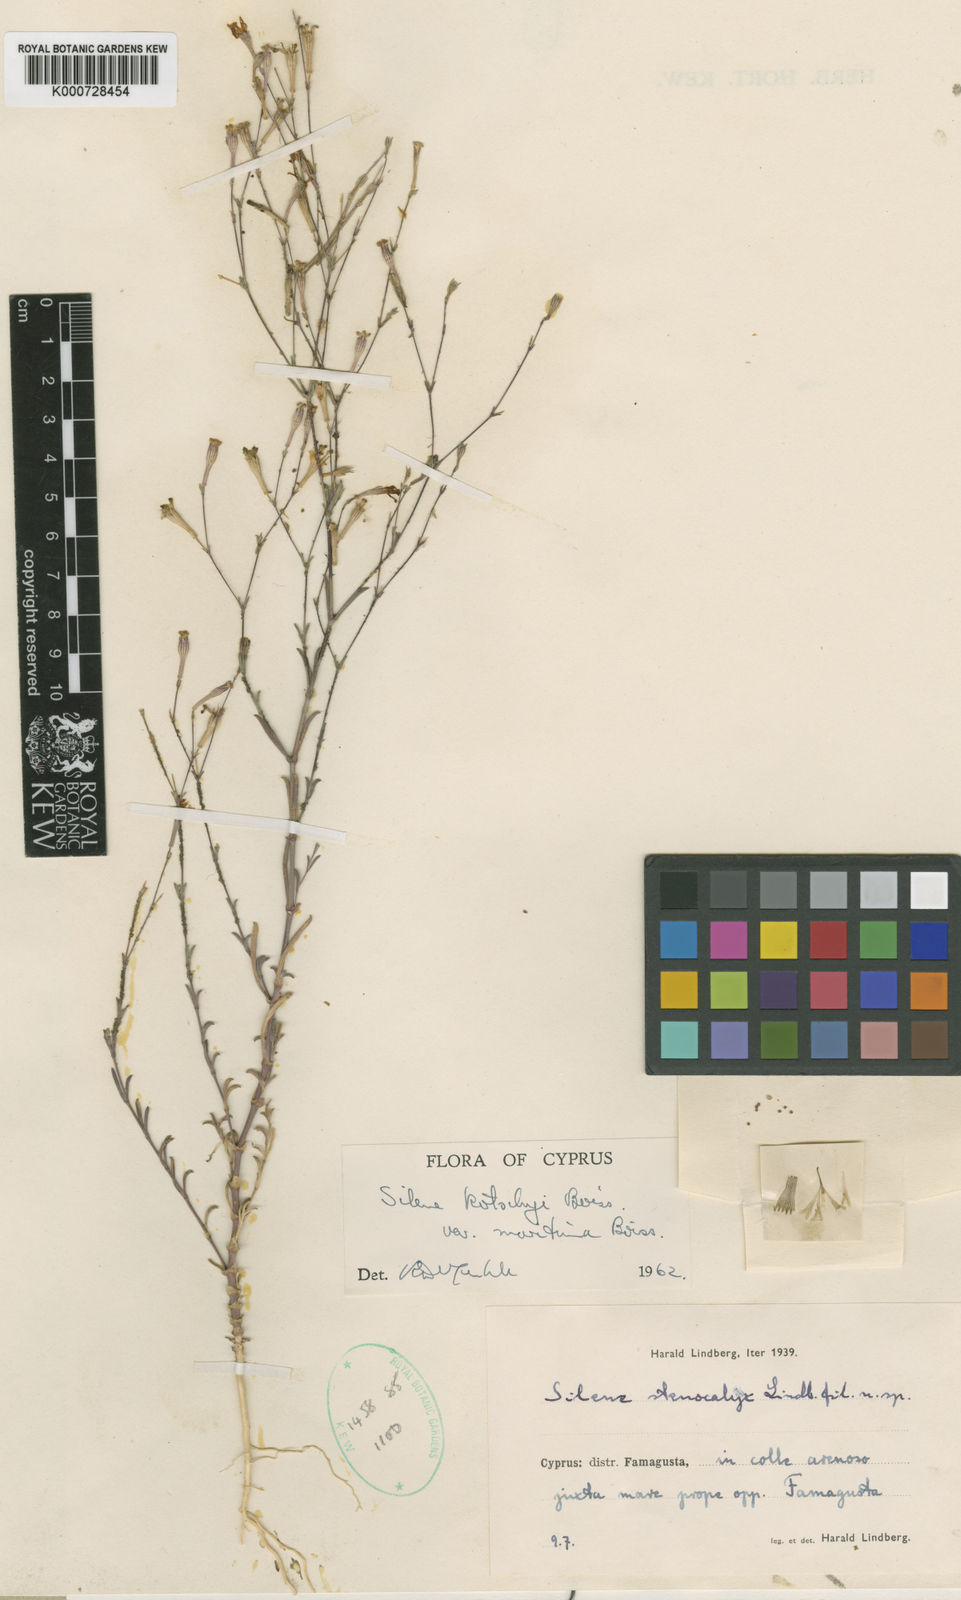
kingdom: Plantae
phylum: Tracheophyta
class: Magnoliopsida
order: Caryophyllales
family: Caryophyllaceae
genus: Silene
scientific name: Silene
